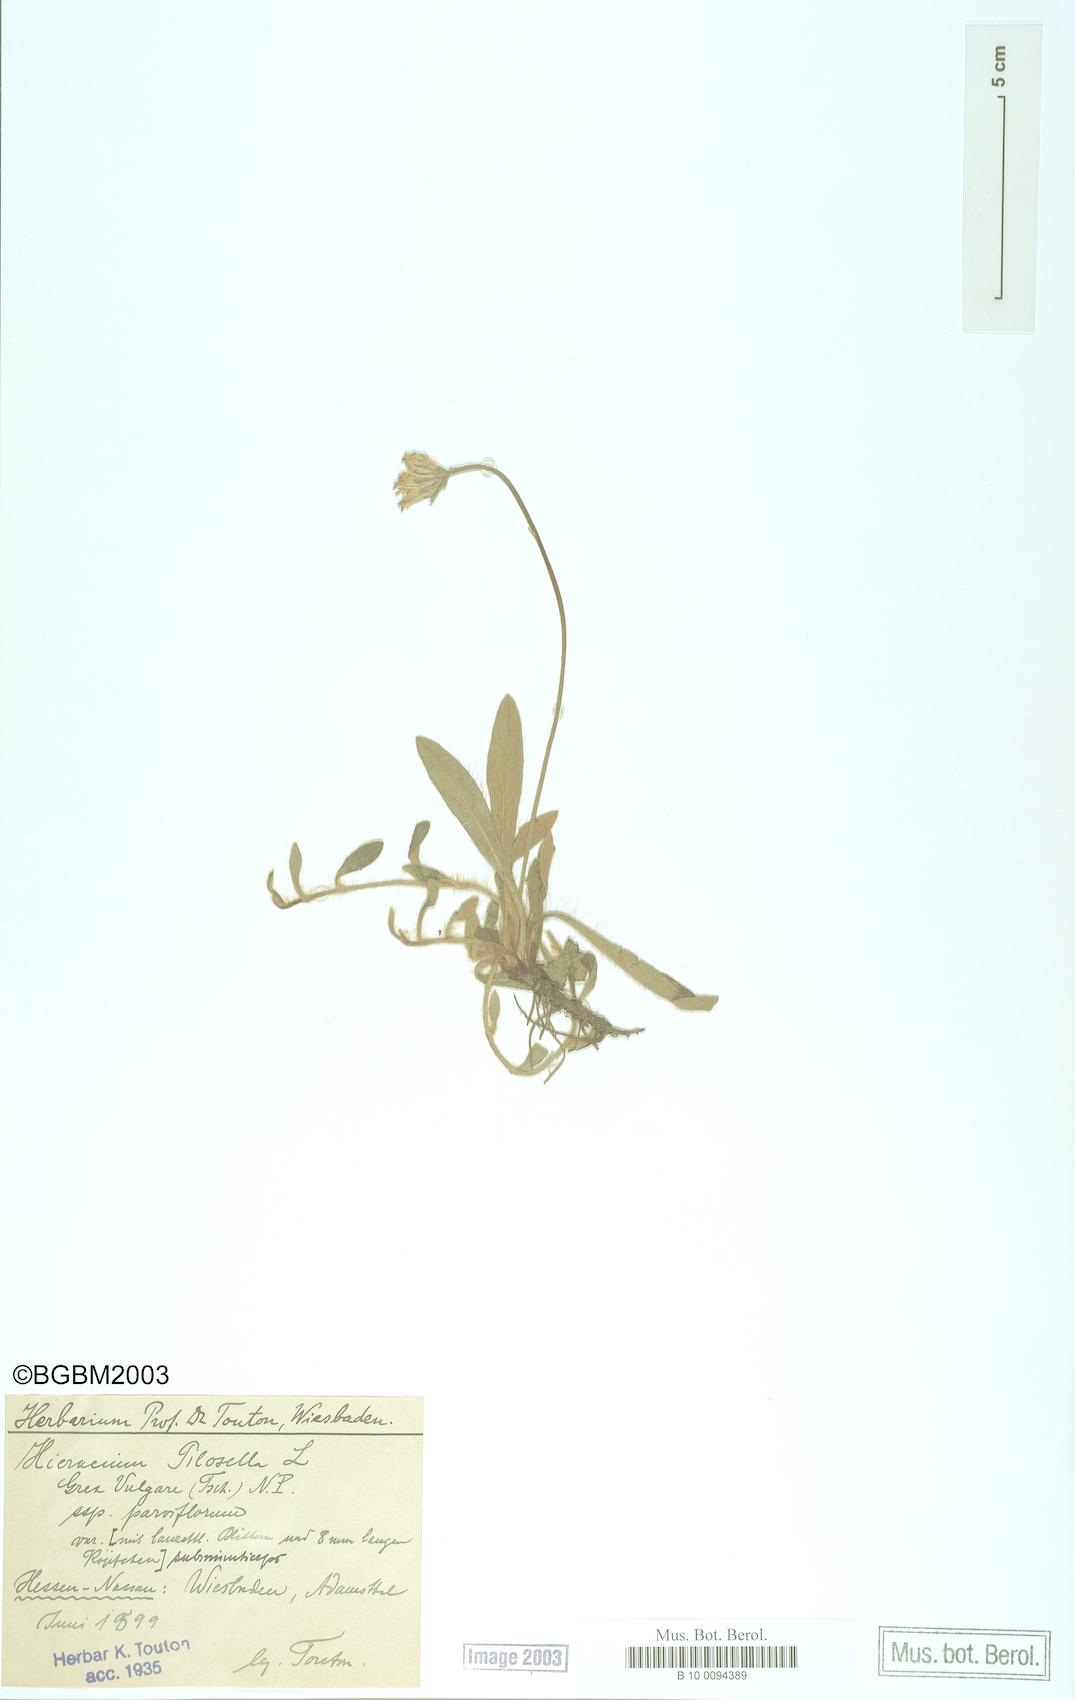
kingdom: Plantae
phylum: Tracheophyta
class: Magnoliopsida
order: Asterales
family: Asteraceae
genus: Pilosella
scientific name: Pilosella officinarum
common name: Mouse-ear hawkweed
